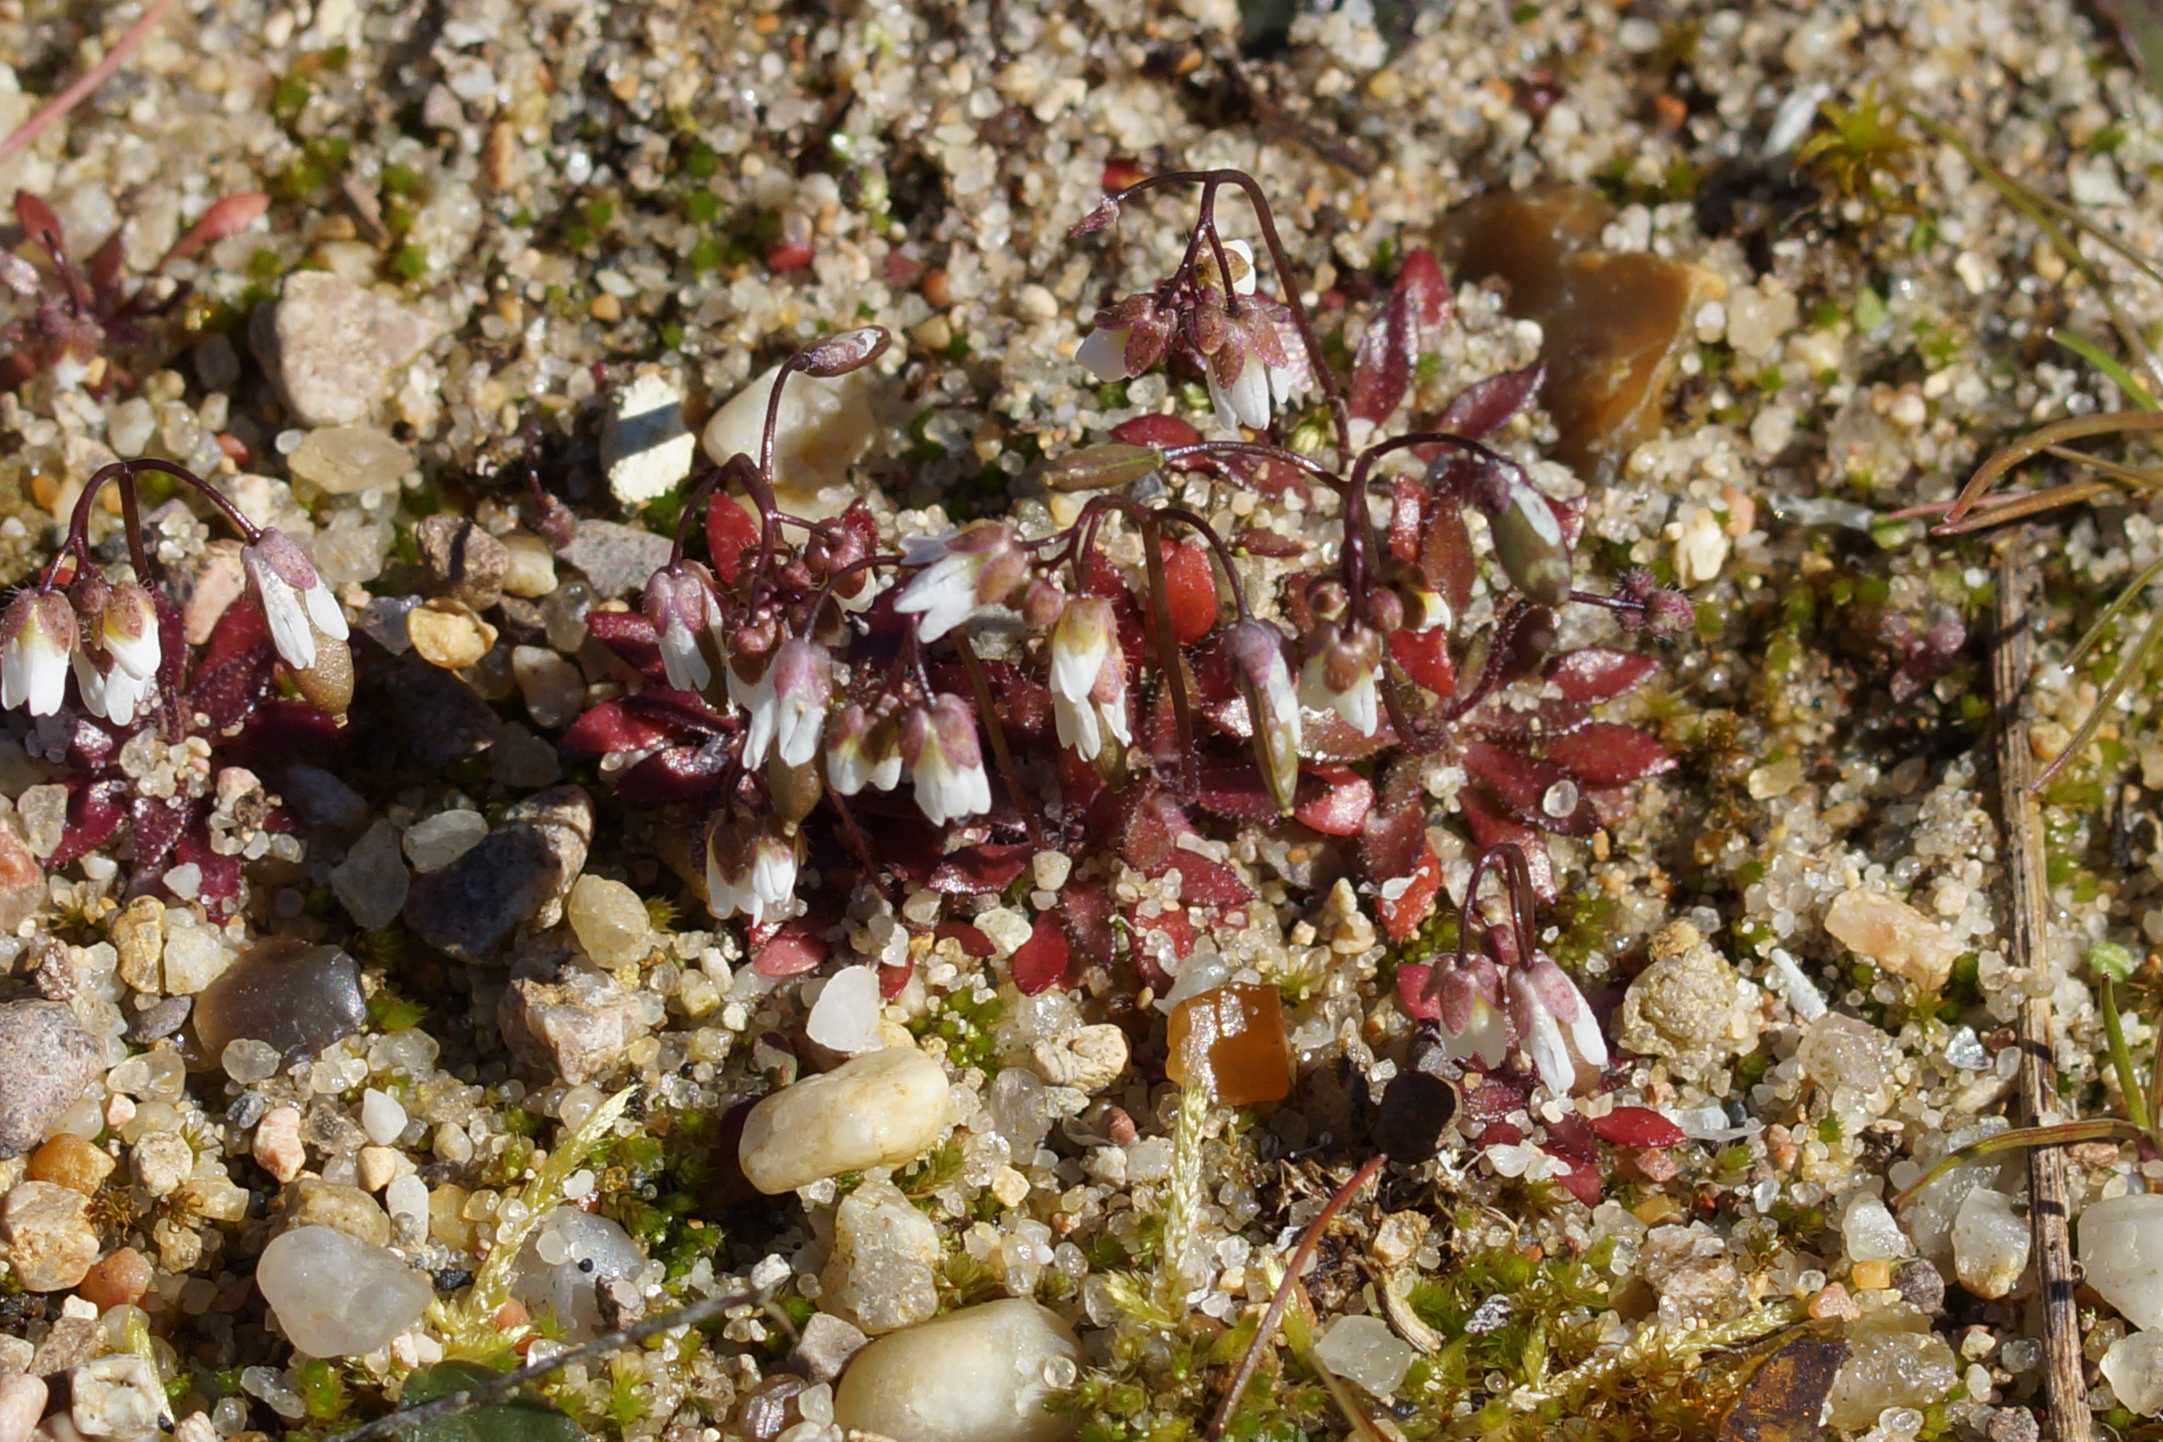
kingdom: Plantae
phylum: Tracheophyta
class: Magnoliopsida
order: Brassicales
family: Brassicaceae
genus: Draba
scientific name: Draba verna
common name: Vår-gæslingeblomst
